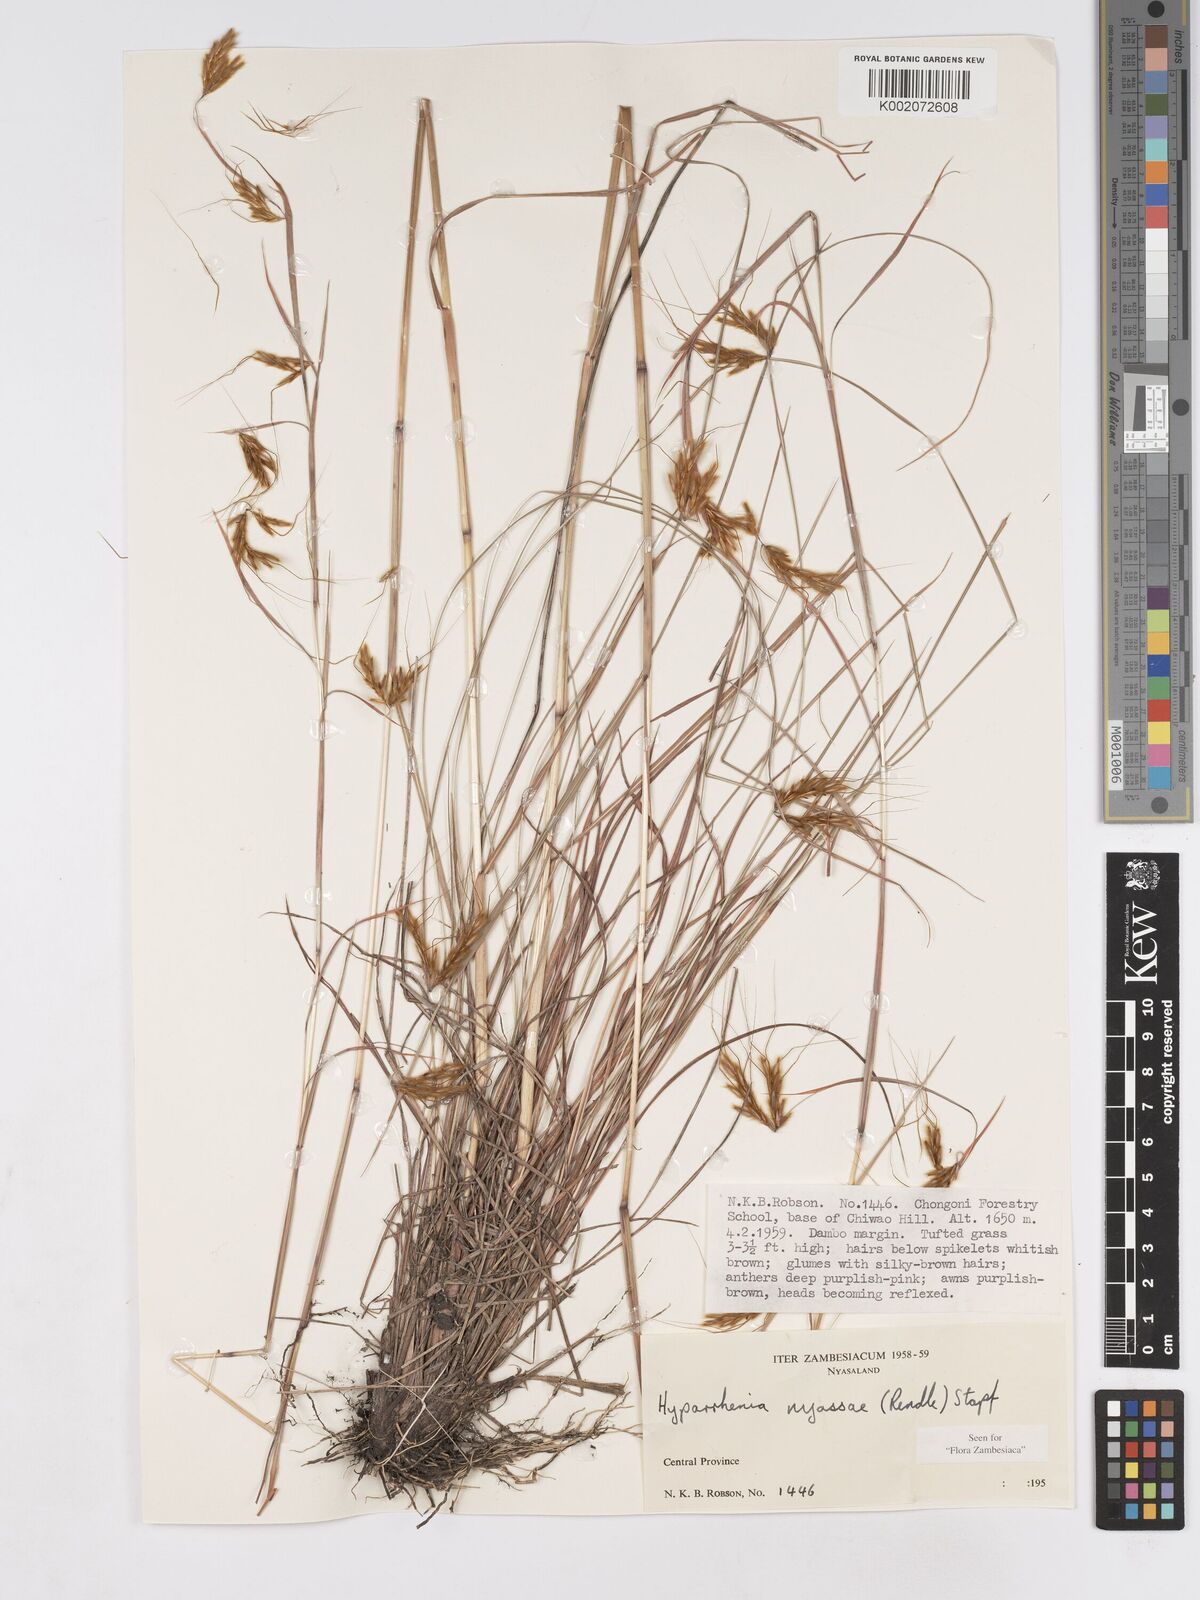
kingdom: Plantae
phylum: Tracheophyta
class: Liliopsida
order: Poales
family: Poaceae
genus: Hyparrhenia
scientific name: Hyparrhenia nyassae
